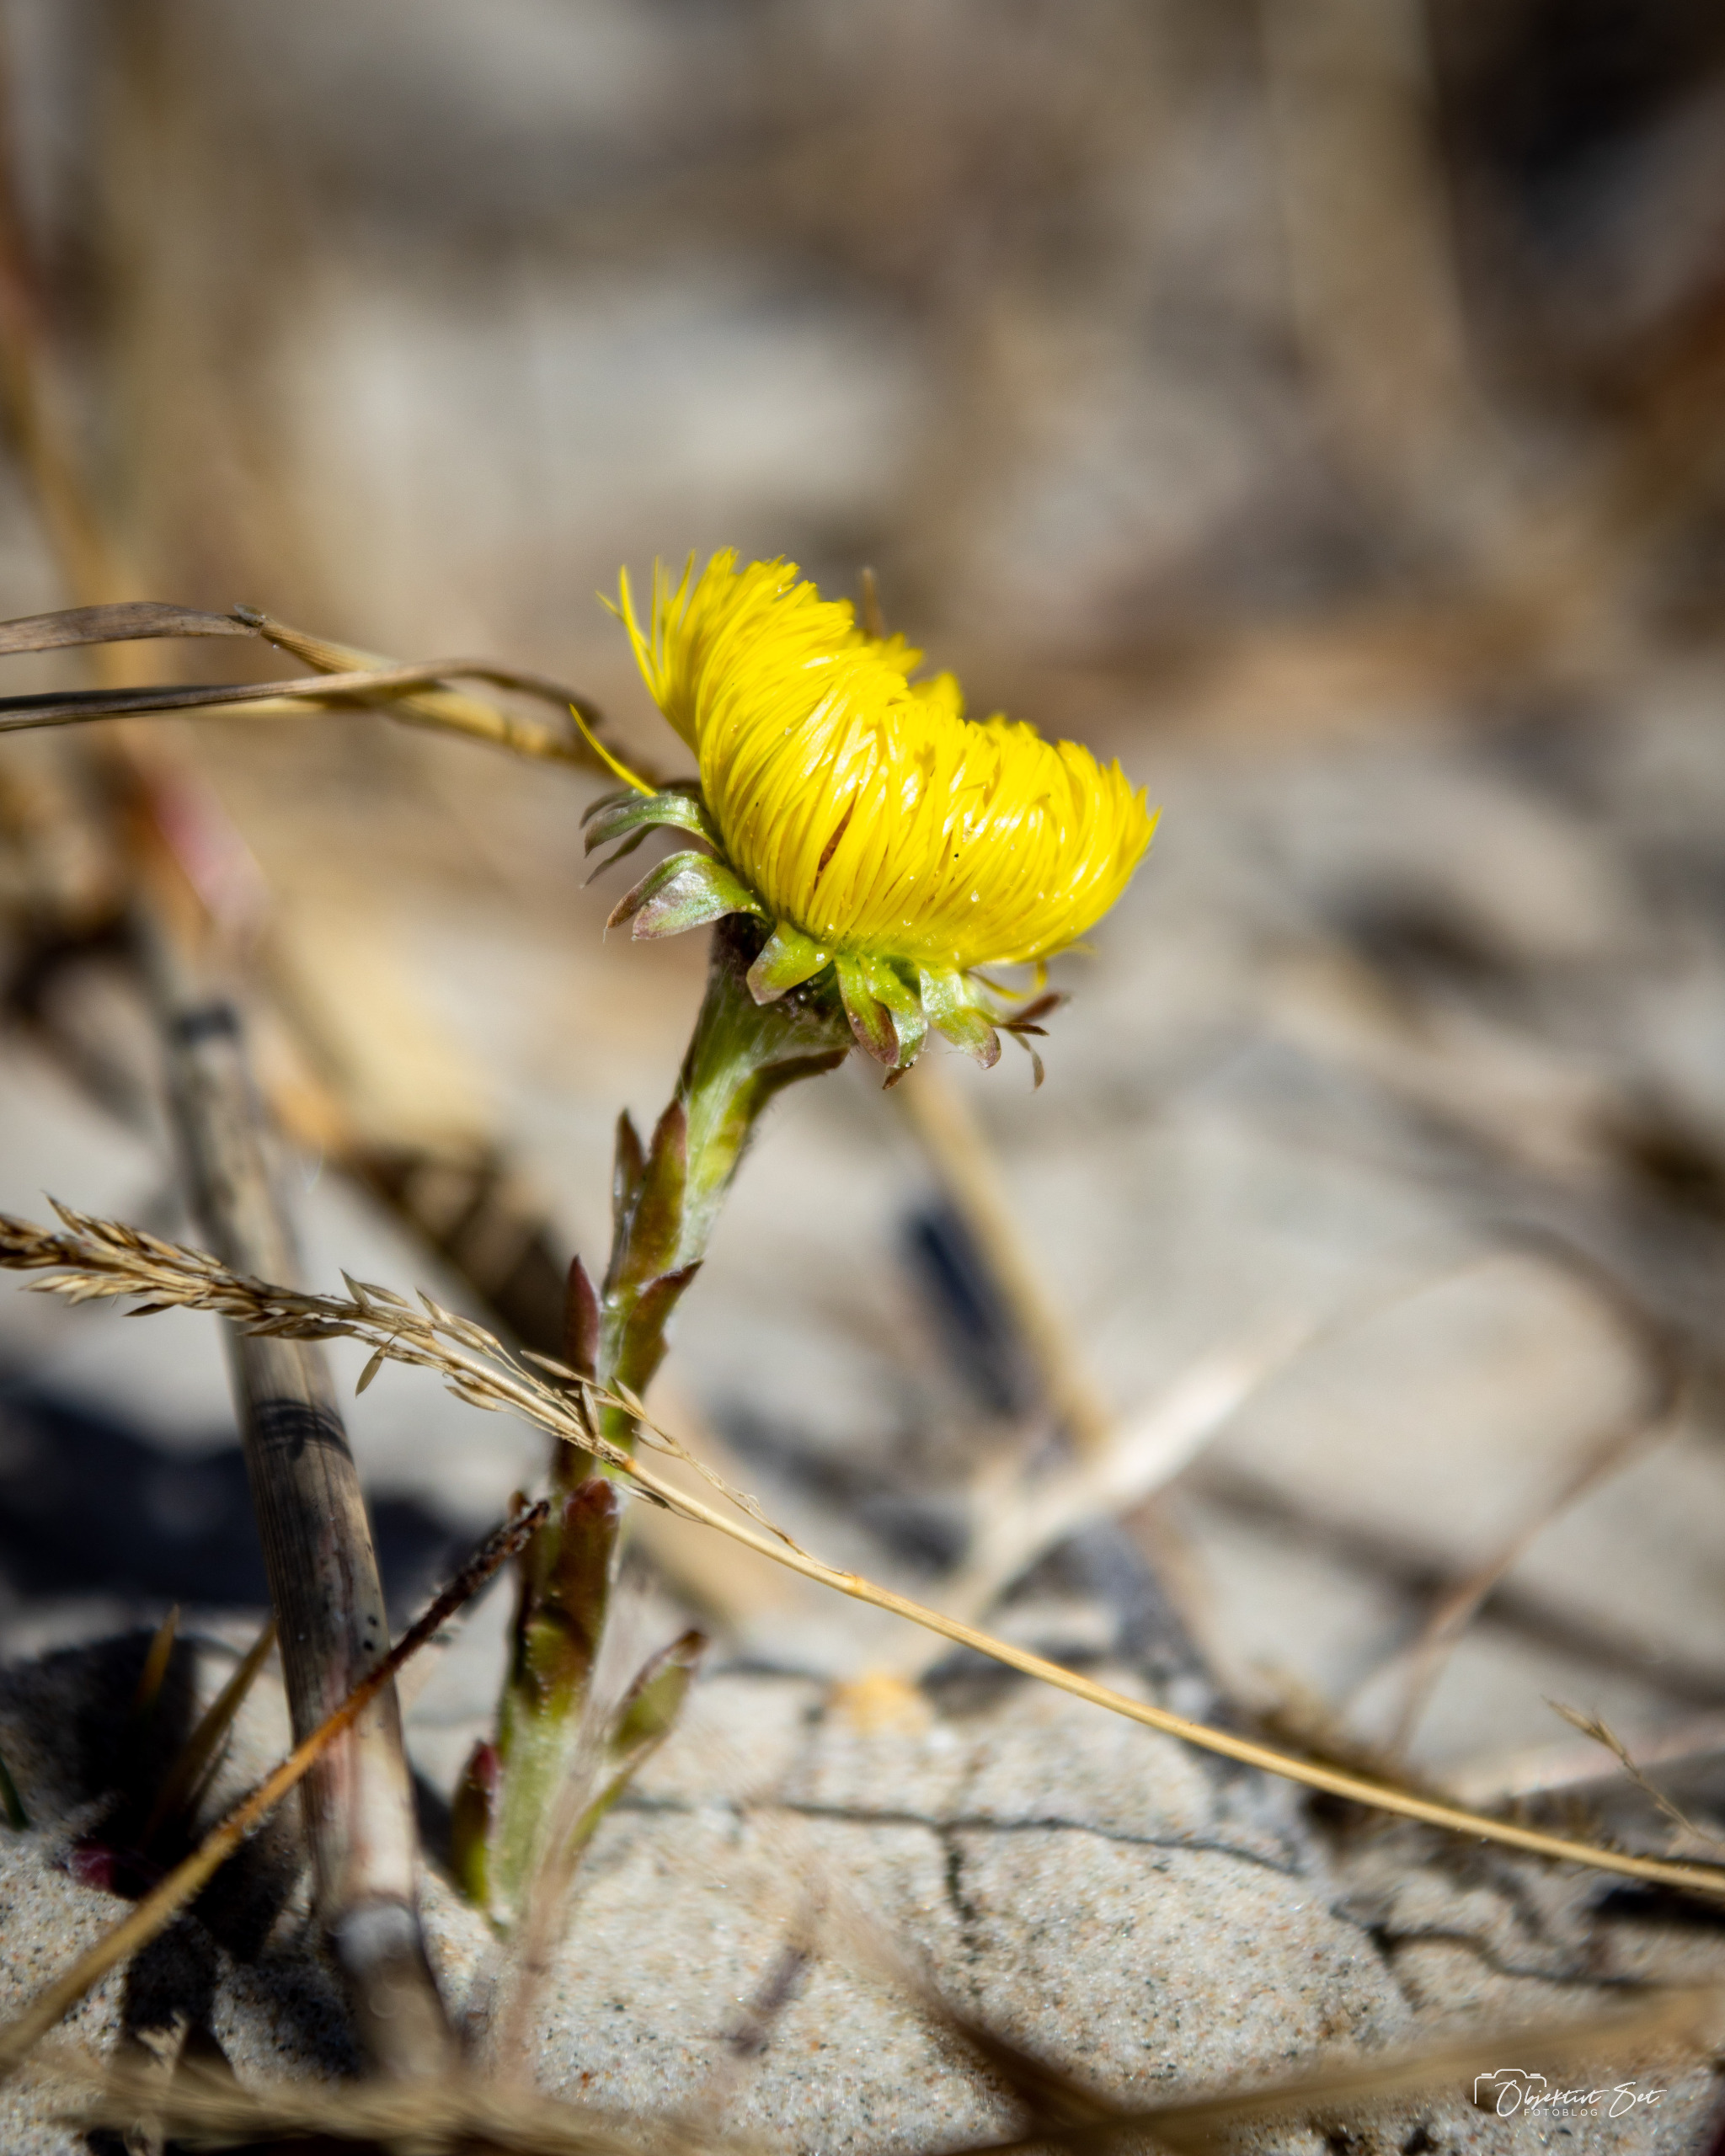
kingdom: Plantae
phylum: Tracheophyta
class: Magnoliopsida
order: Asterales
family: Asteraceae
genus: Tussilago
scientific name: Tussilago farfara
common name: Følfod
